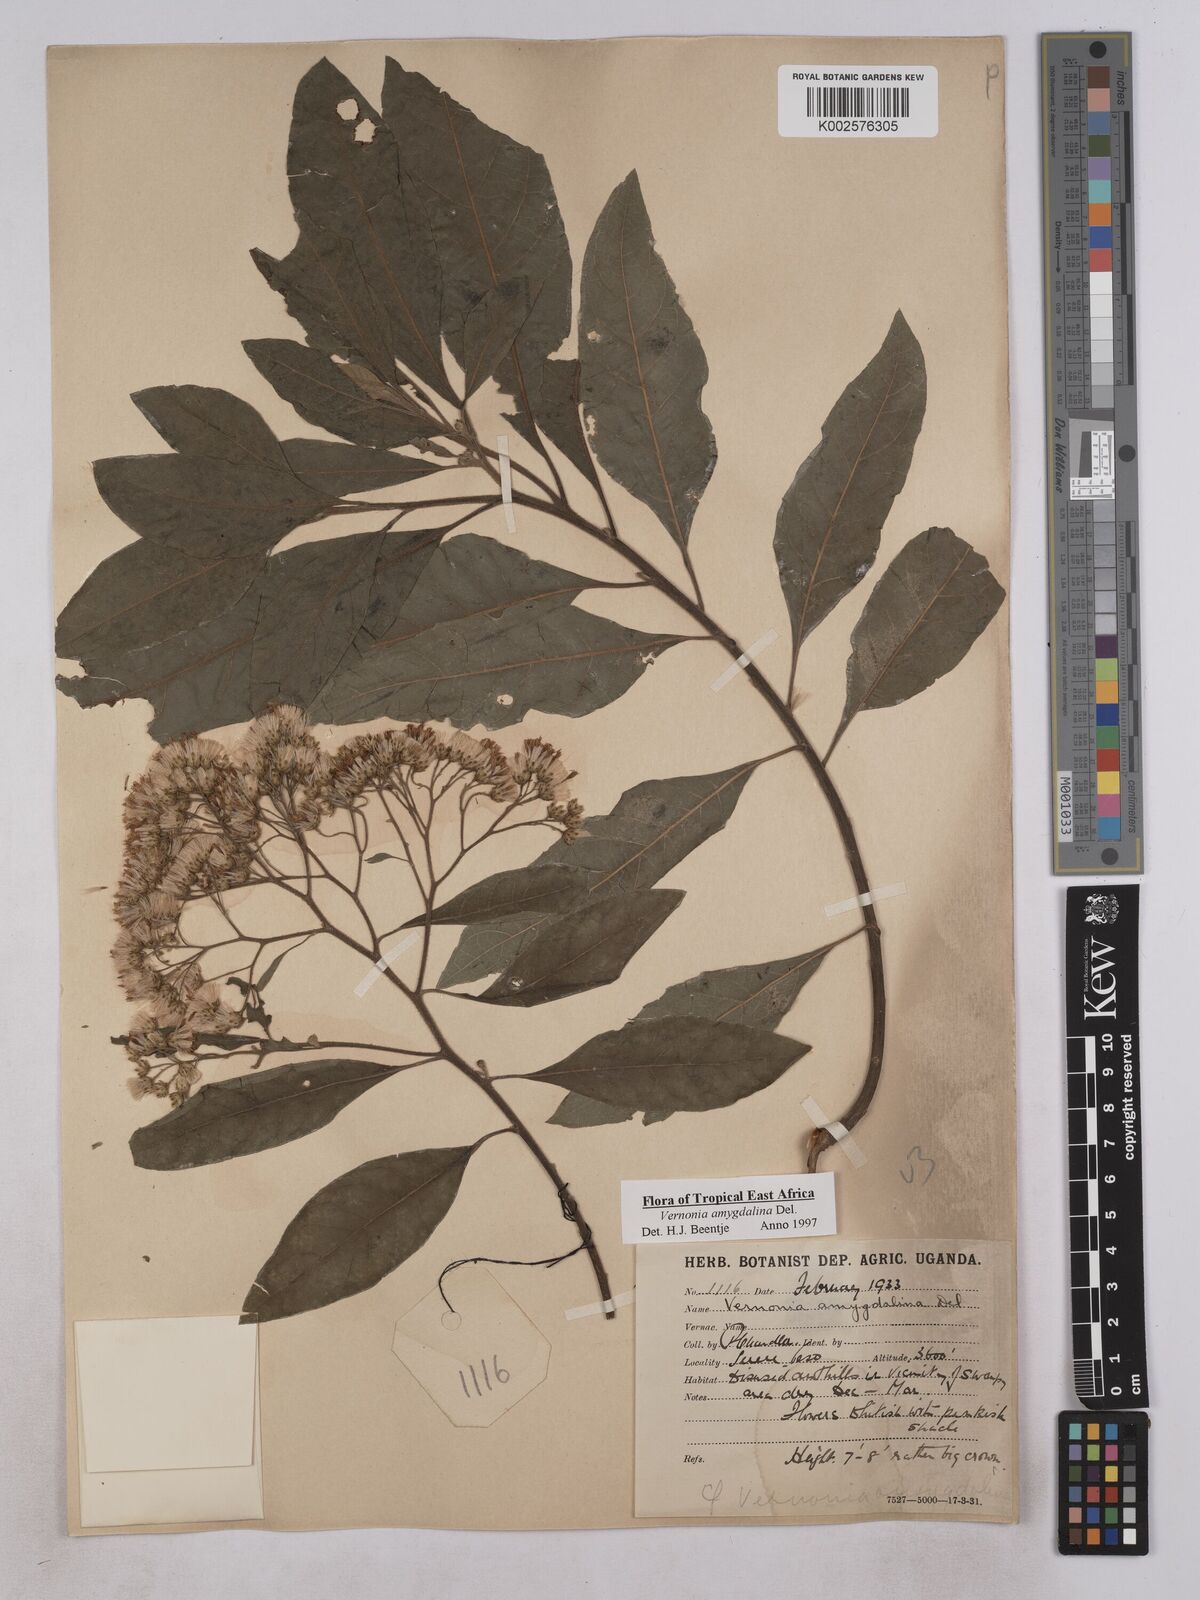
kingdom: Plantae
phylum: Tracheophyta
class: Magnoliopsida
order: Asterales
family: Asteraceae
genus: Gymnanthemum
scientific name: Gymnanthemum amygdalinum
